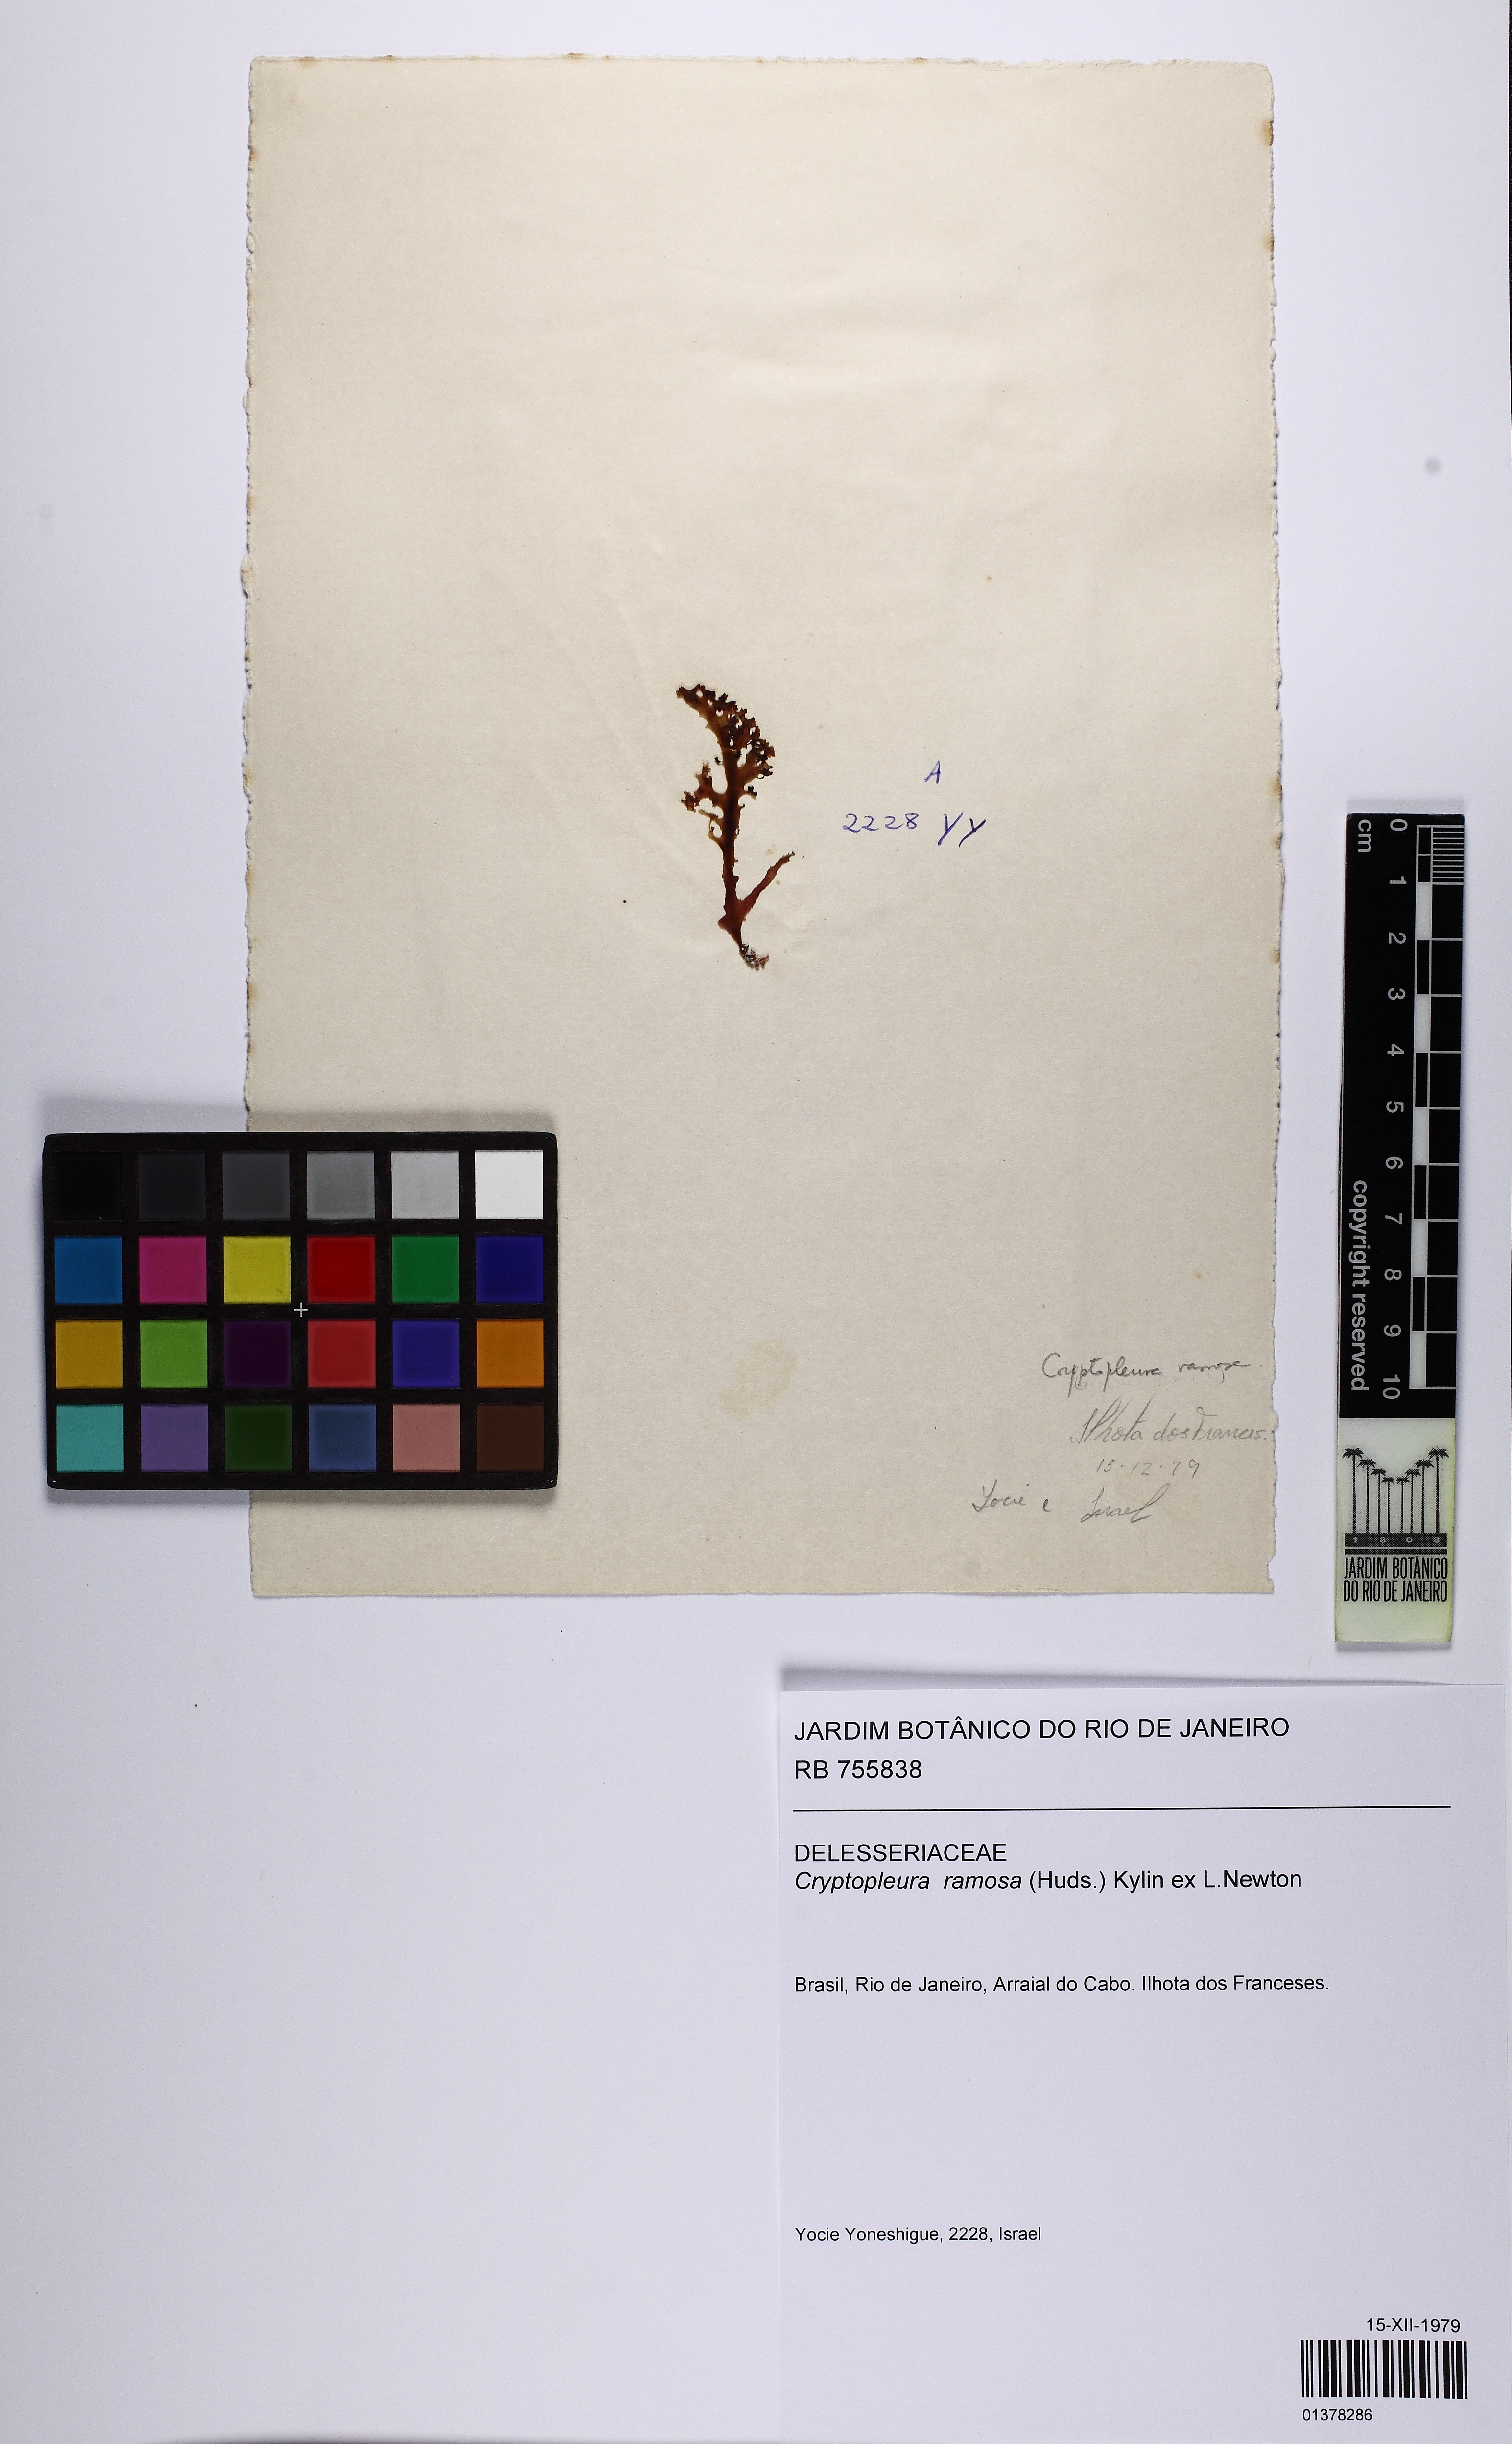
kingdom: Plantae
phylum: Rhodophyta
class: Florideophyceae
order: Ceramiales
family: Delesseriaceae
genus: Cryptopleura
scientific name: Cryptopleura ramosa
